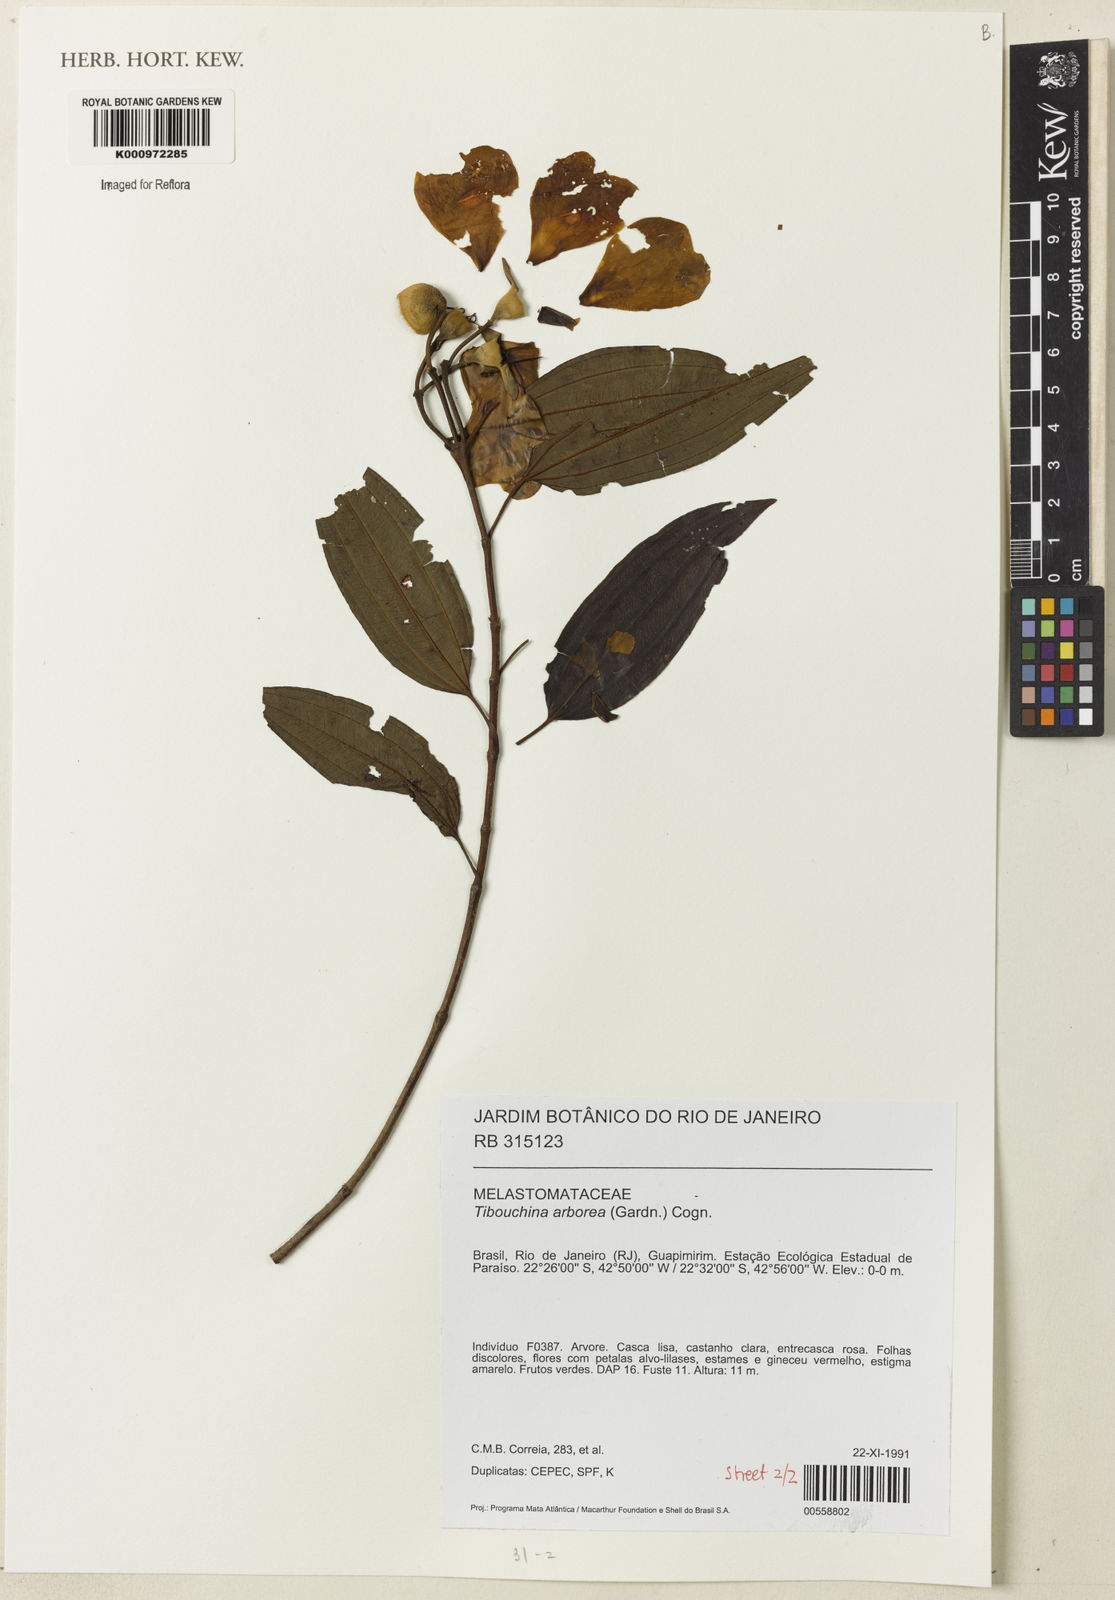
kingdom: Plantae
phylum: Tracheophyta
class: Magnoliopsida
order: Myrtales
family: Melastomataceae
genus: Pleroma
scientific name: Pleroma arboreum
